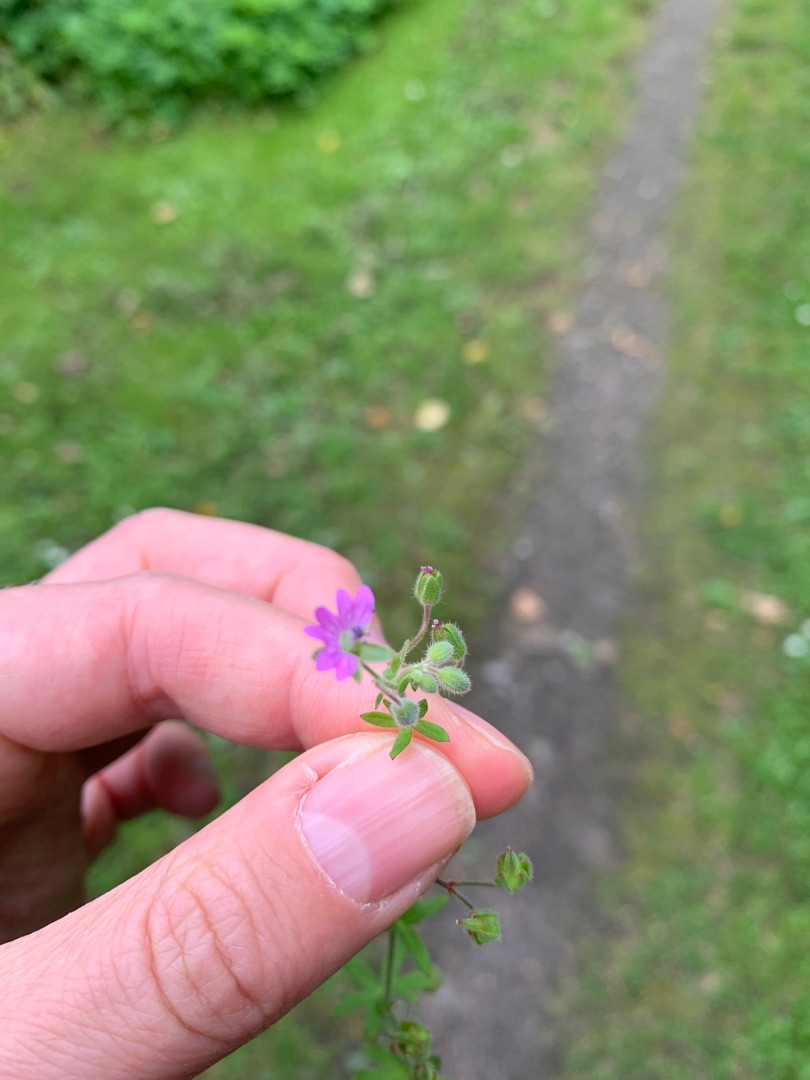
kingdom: Plantae
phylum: Tracheophyta
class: Magnoliopsida
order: Geraniales
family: Geraniaceae
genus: Geranium
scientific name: Geranium molle
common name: Blød storkenæb
